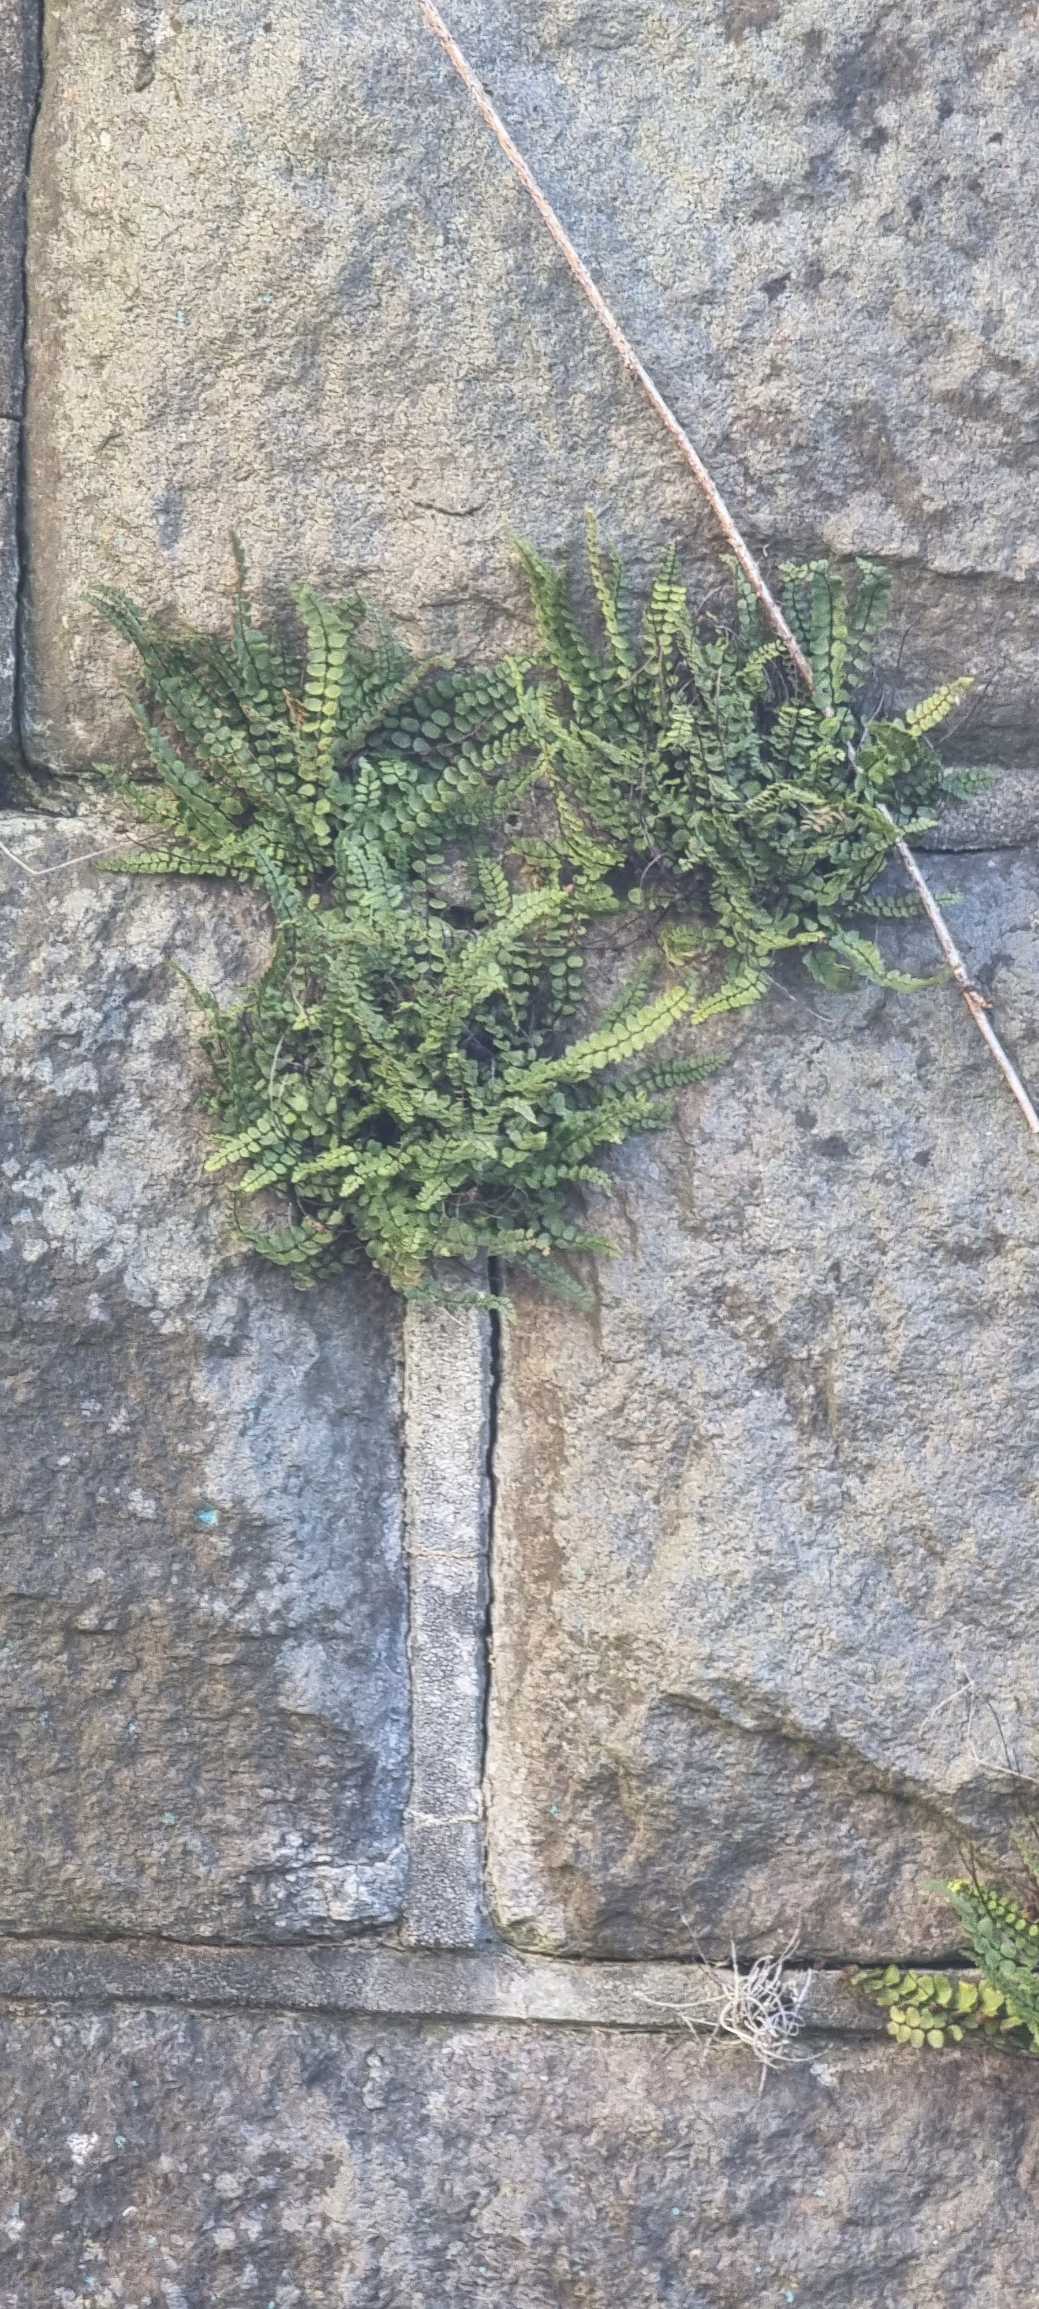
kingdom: Plantae
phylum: Tracheophyta
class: Polypodiopsida
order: Polypodiales
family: Aspleniaceae
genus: Asplenium
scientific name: Asplenium quadrivalens
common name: Kalk-radeløv
